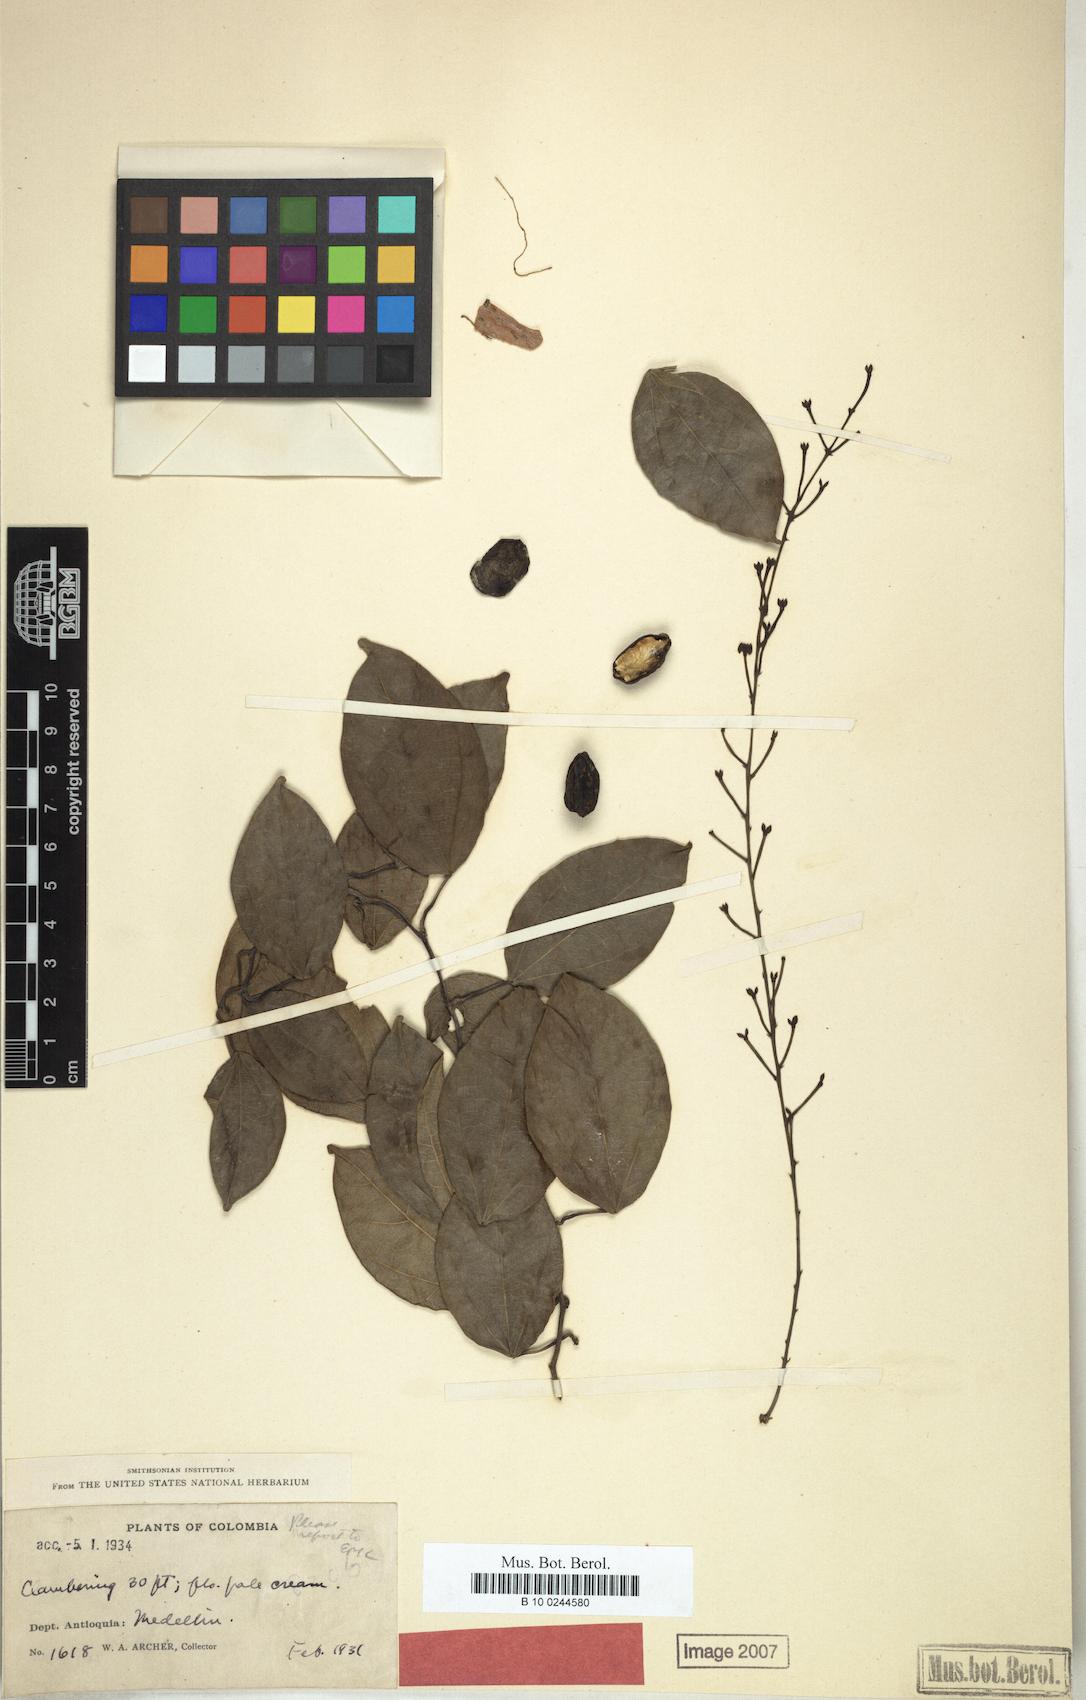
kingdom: Plantae
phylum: Tracheophyta
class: Magnoliopsida
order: Ranunculales
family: Menispermaceae
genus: Odontocarya
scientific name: Odontocarya tenacissima
